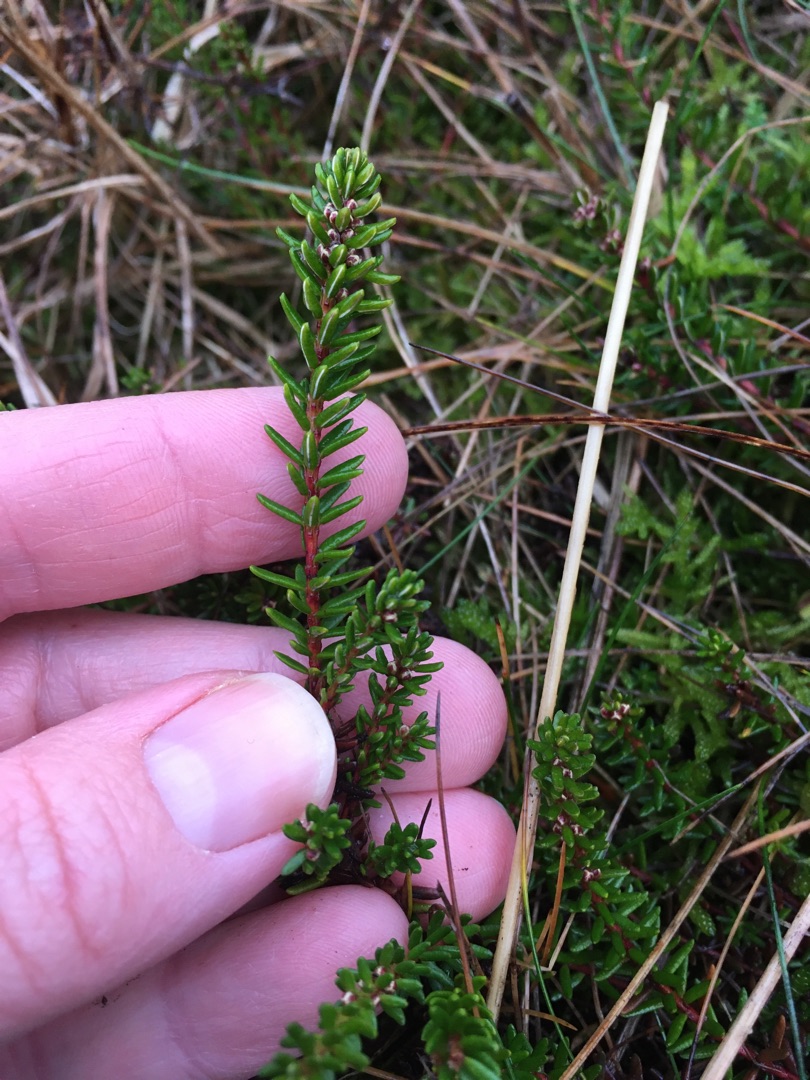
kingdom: Plantae
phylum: Tracheophyta
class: Magnoliopsida
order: Ericales
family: Ericaceae
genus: Empetrum
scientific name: Empetrum nigrum
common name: Revling
